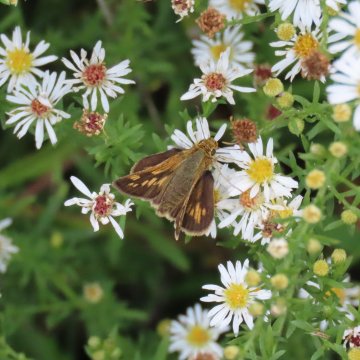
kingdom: Animalia
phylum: Arthropoda
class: Insecta
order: Lepidoptera
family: Hesperiidae
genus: Polites
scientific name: Polites coras
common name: Peck's Skipper
